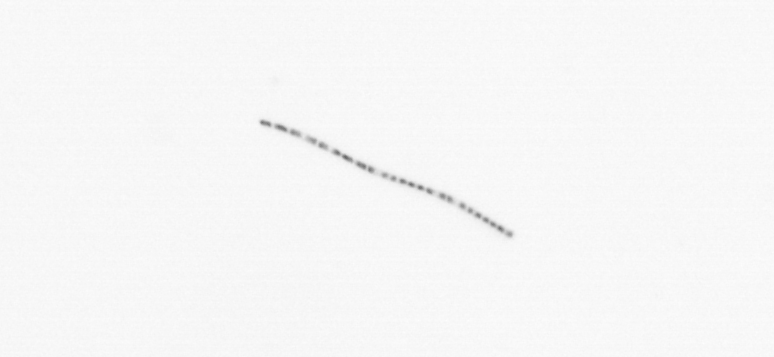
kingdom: Chromista
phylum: Ochrophyta
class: Bacillariophyceae
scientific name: Bacillariophyceae
